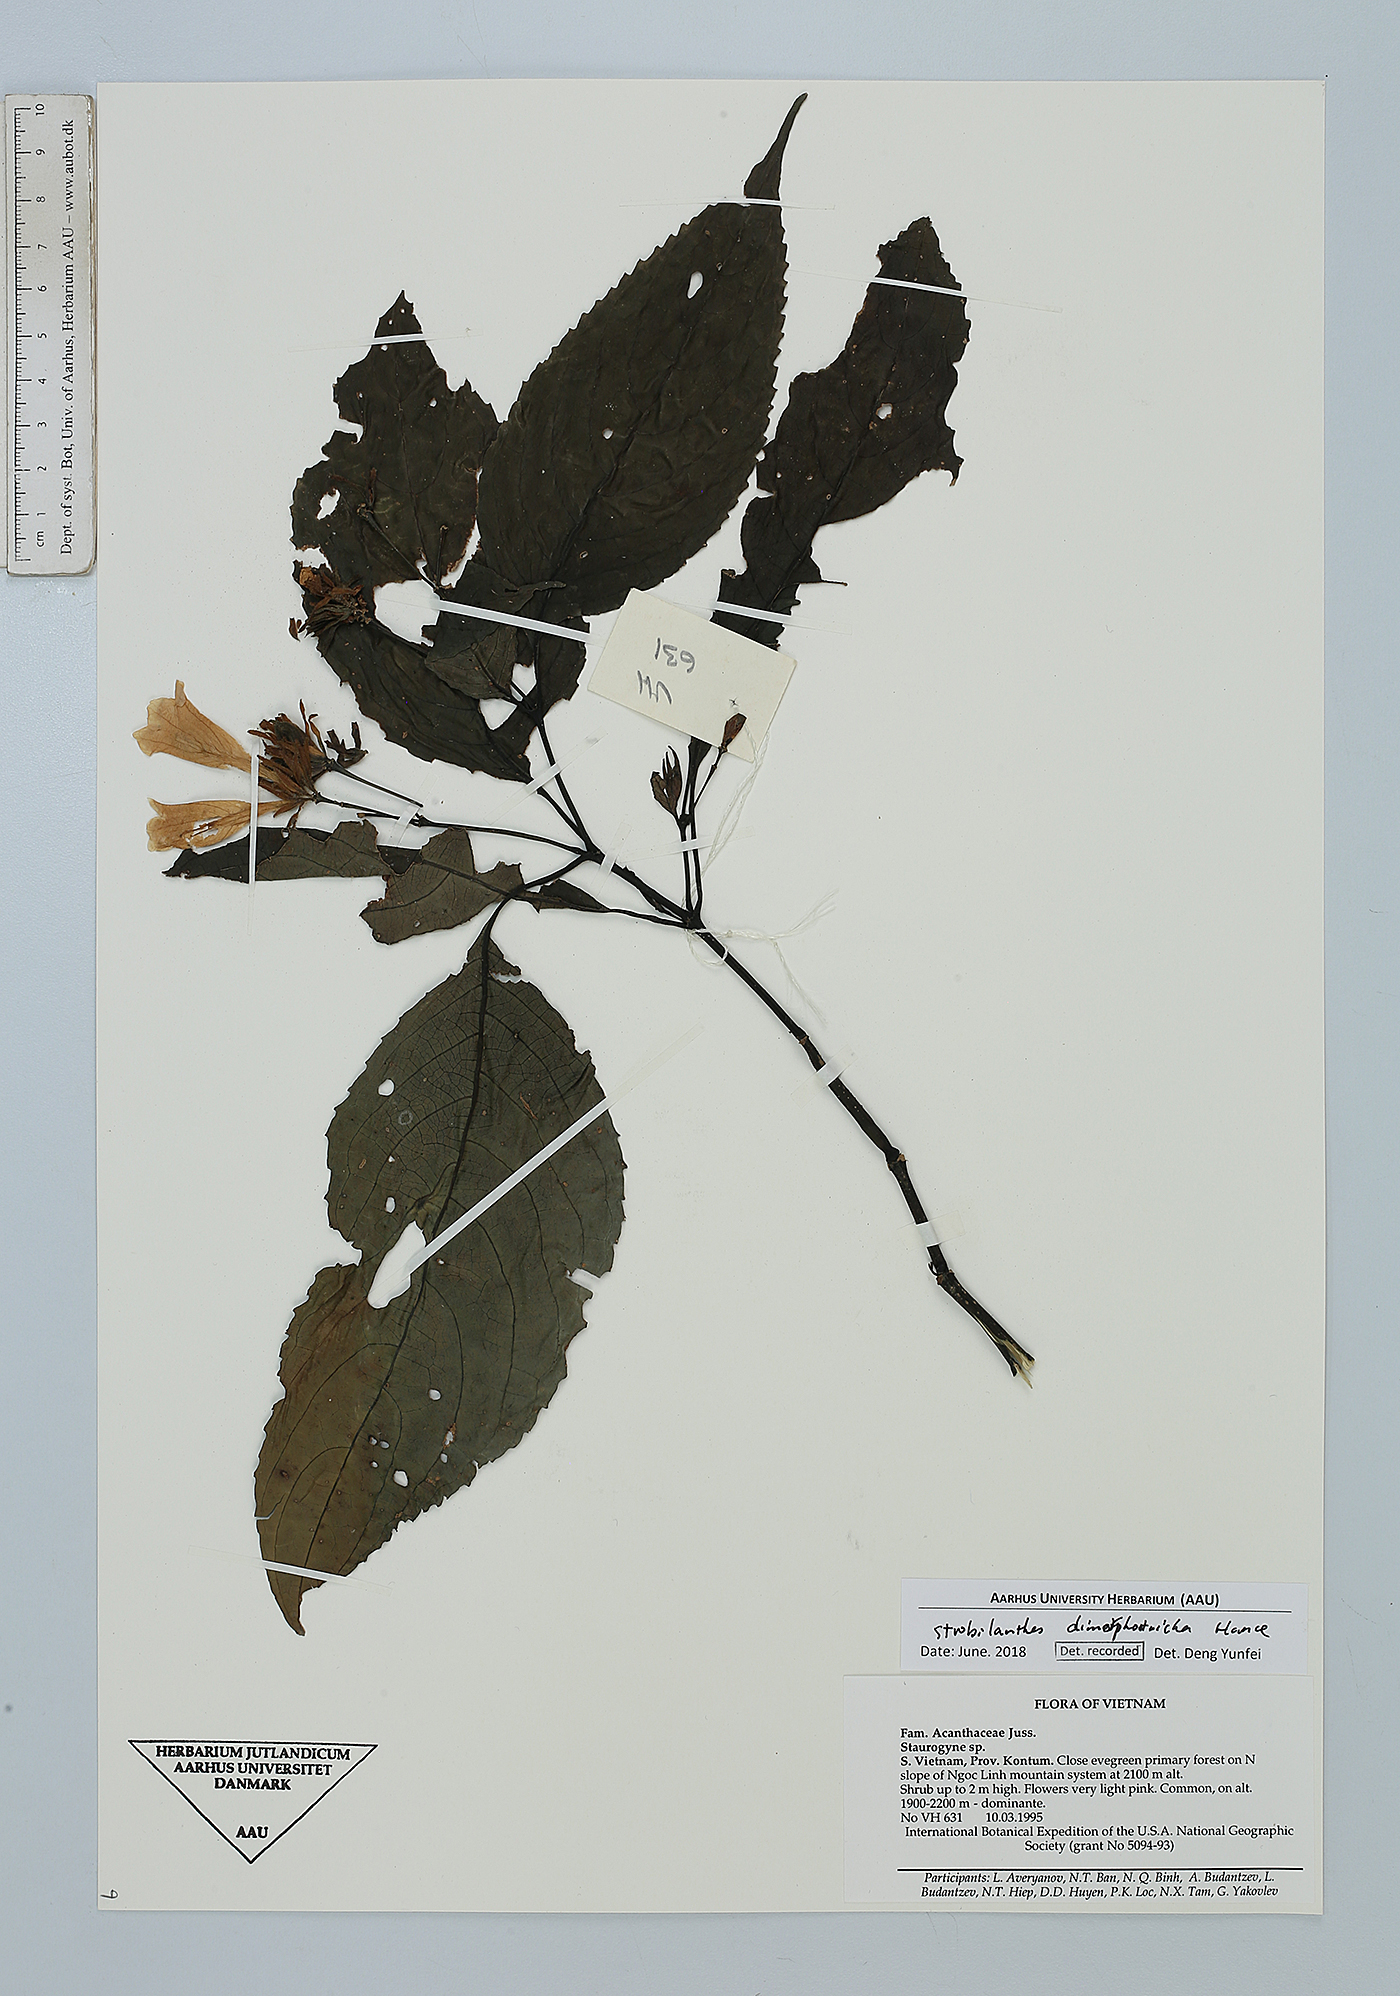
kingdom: Plantae
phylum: Tracheophyta
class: Magnoliopsida
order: Lamiales
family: Acanthaceae
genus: Strobilanthes
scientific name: Strobilanthes dimorphotricha
